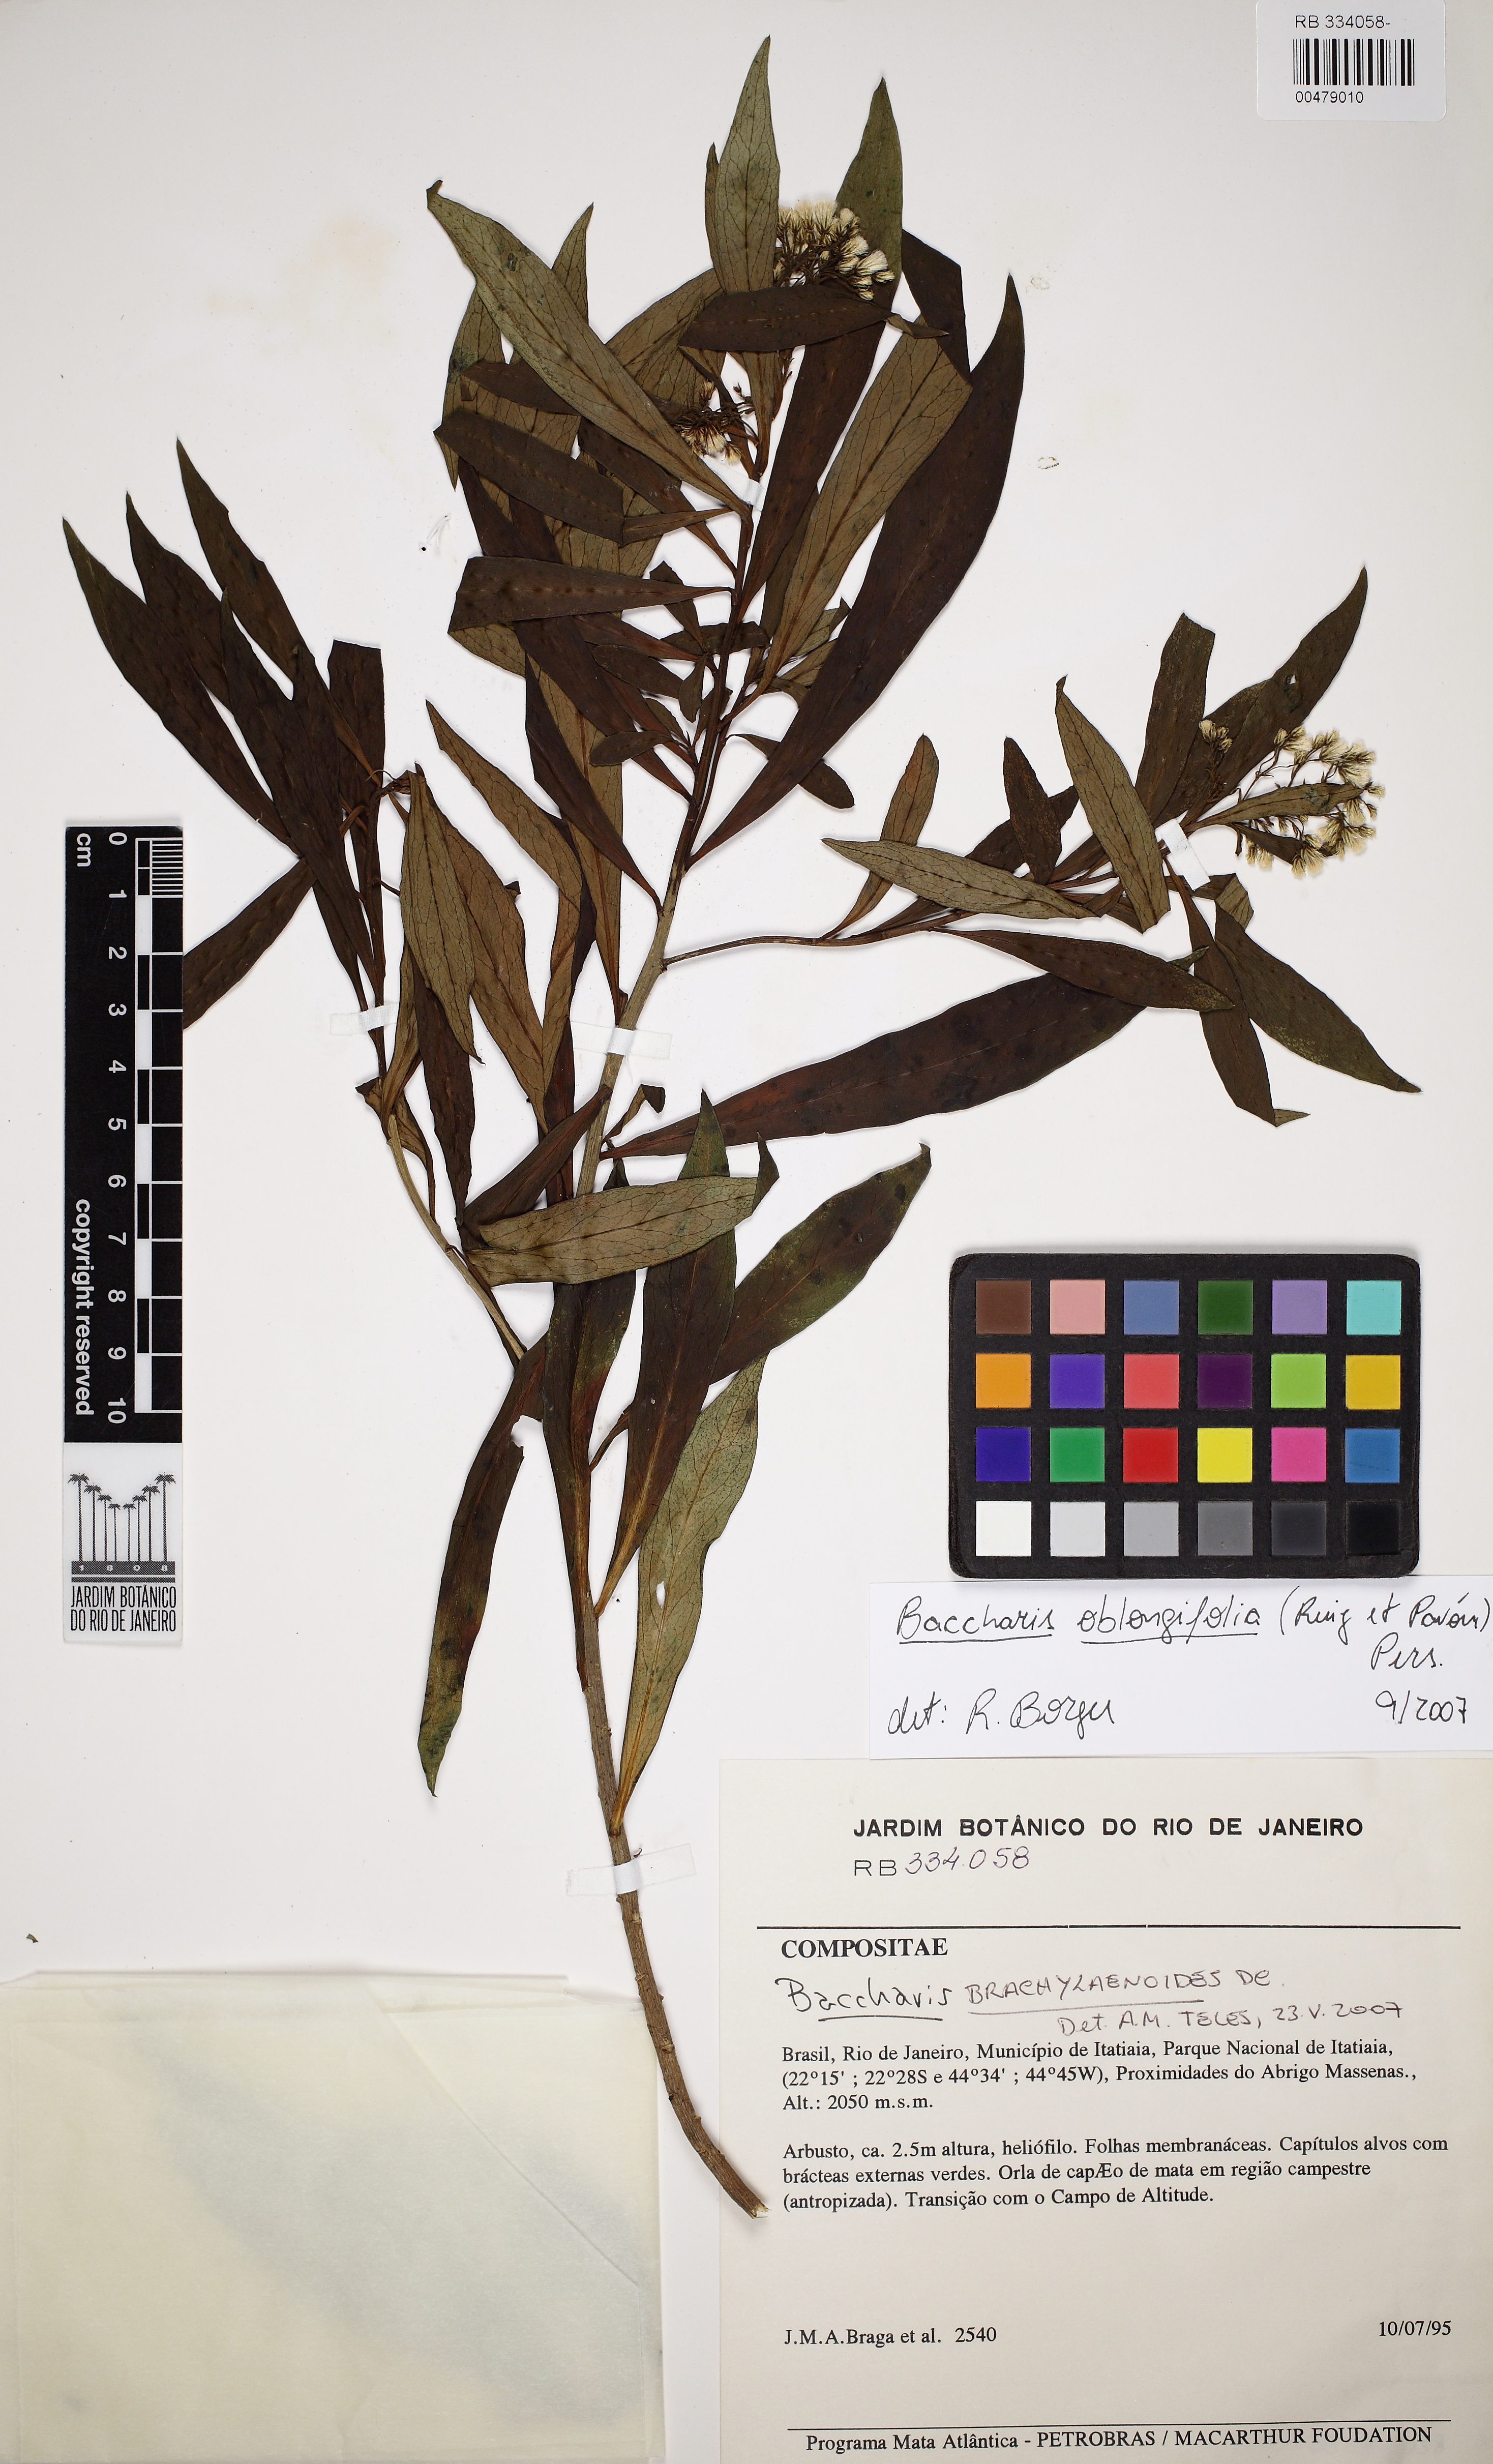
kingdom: Plantae
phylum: Tracheophyta
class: Magnoliopsida
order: Asterales
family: Asteraceae
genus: Baccharis
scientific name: Baccharis oblongifolia
